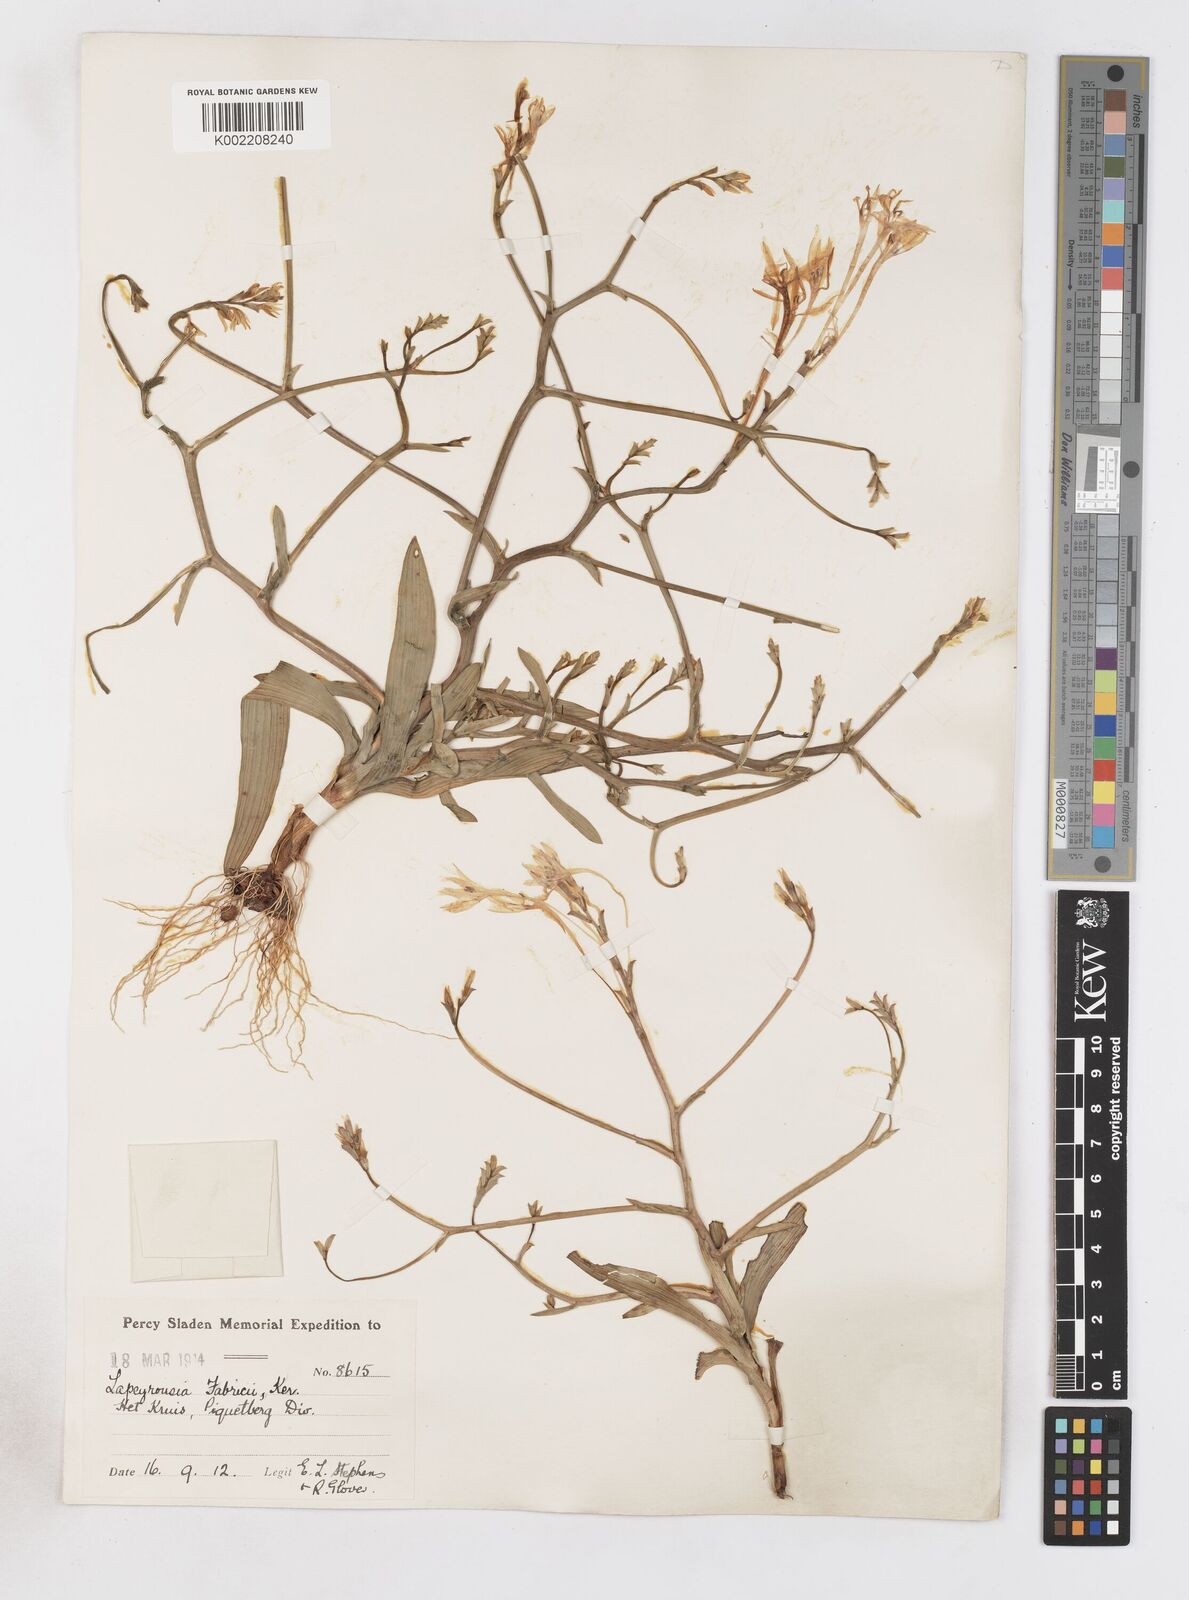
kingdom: Plantae
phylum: Tracheophyta
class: Liliopsida
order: Asparagales
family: Iridaceae
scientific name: Iridaceae
